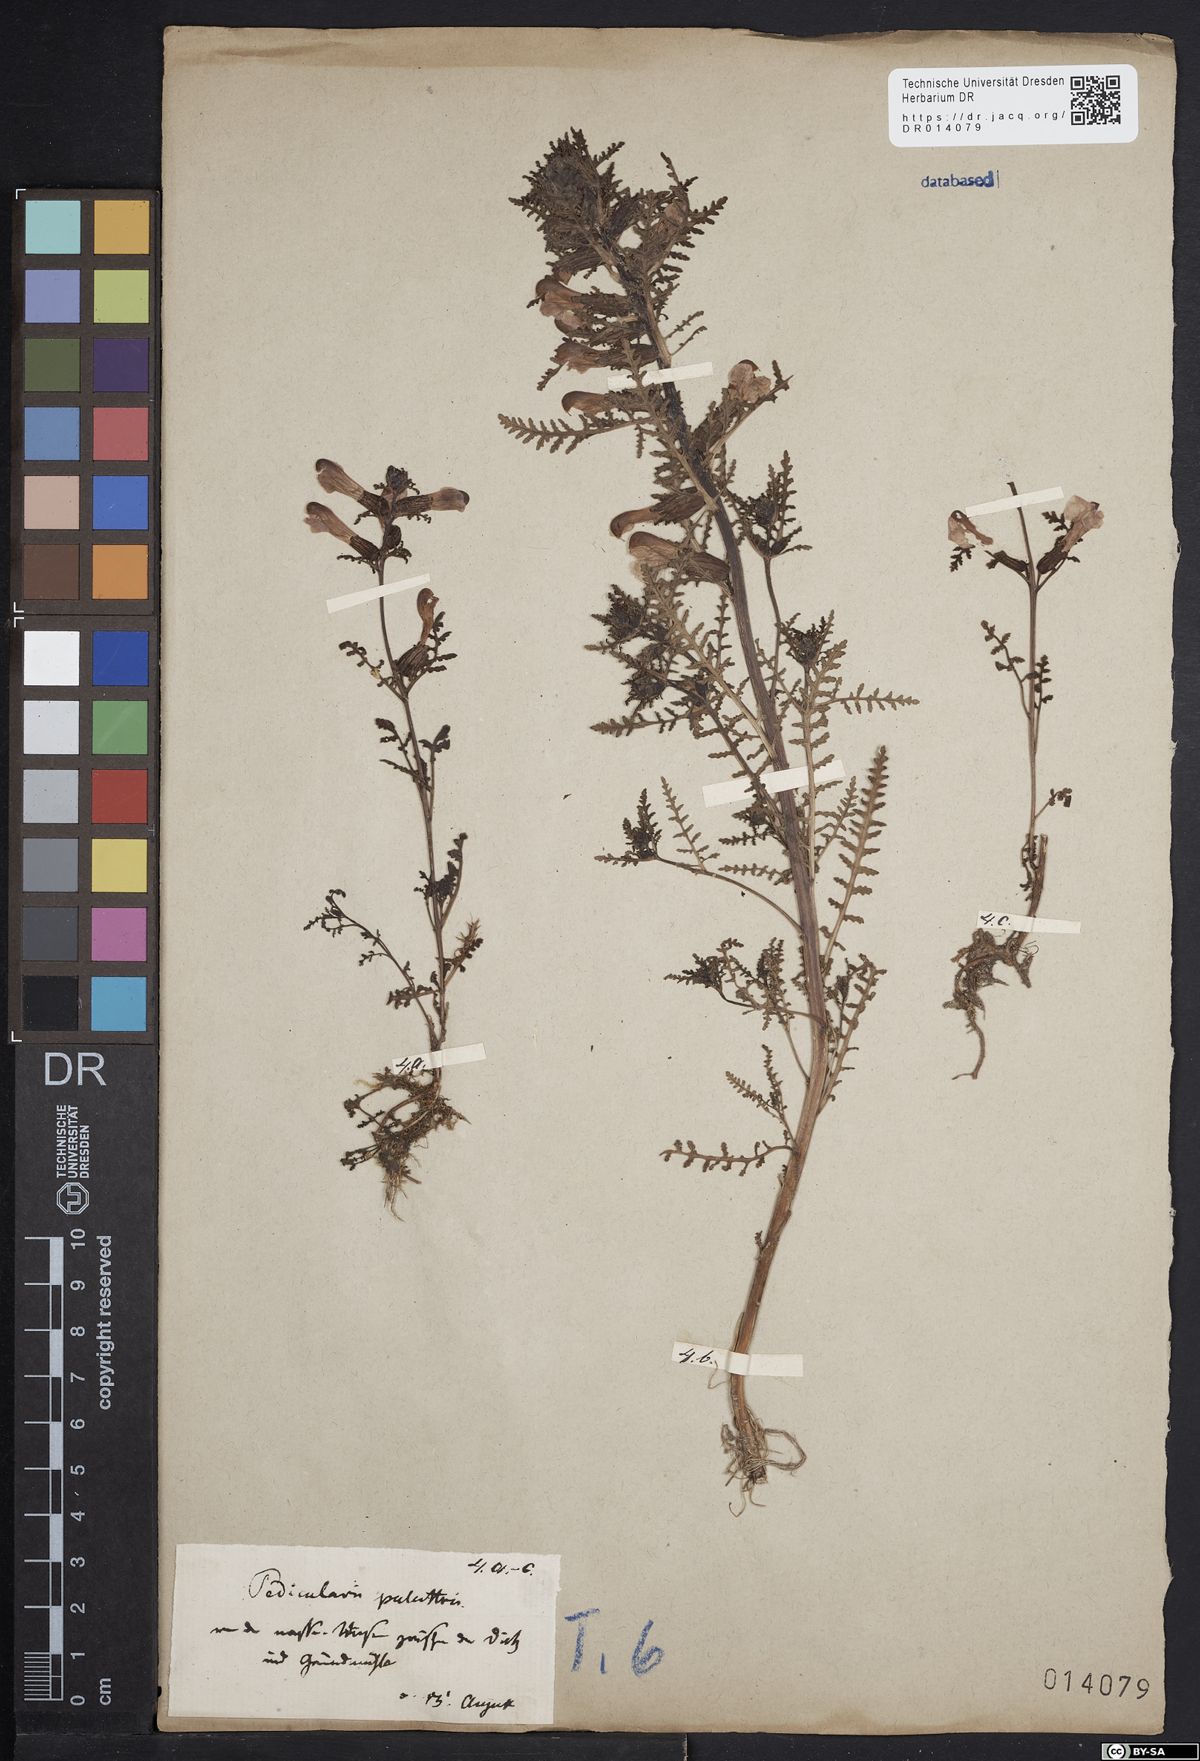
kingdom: Plantae
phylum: Tracheophyta
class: Magnoliopsida
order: Lamiales
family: Orobanchaceae
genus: Pedicularis
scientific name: Pedicularis palustris
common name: Marsh lousewort
